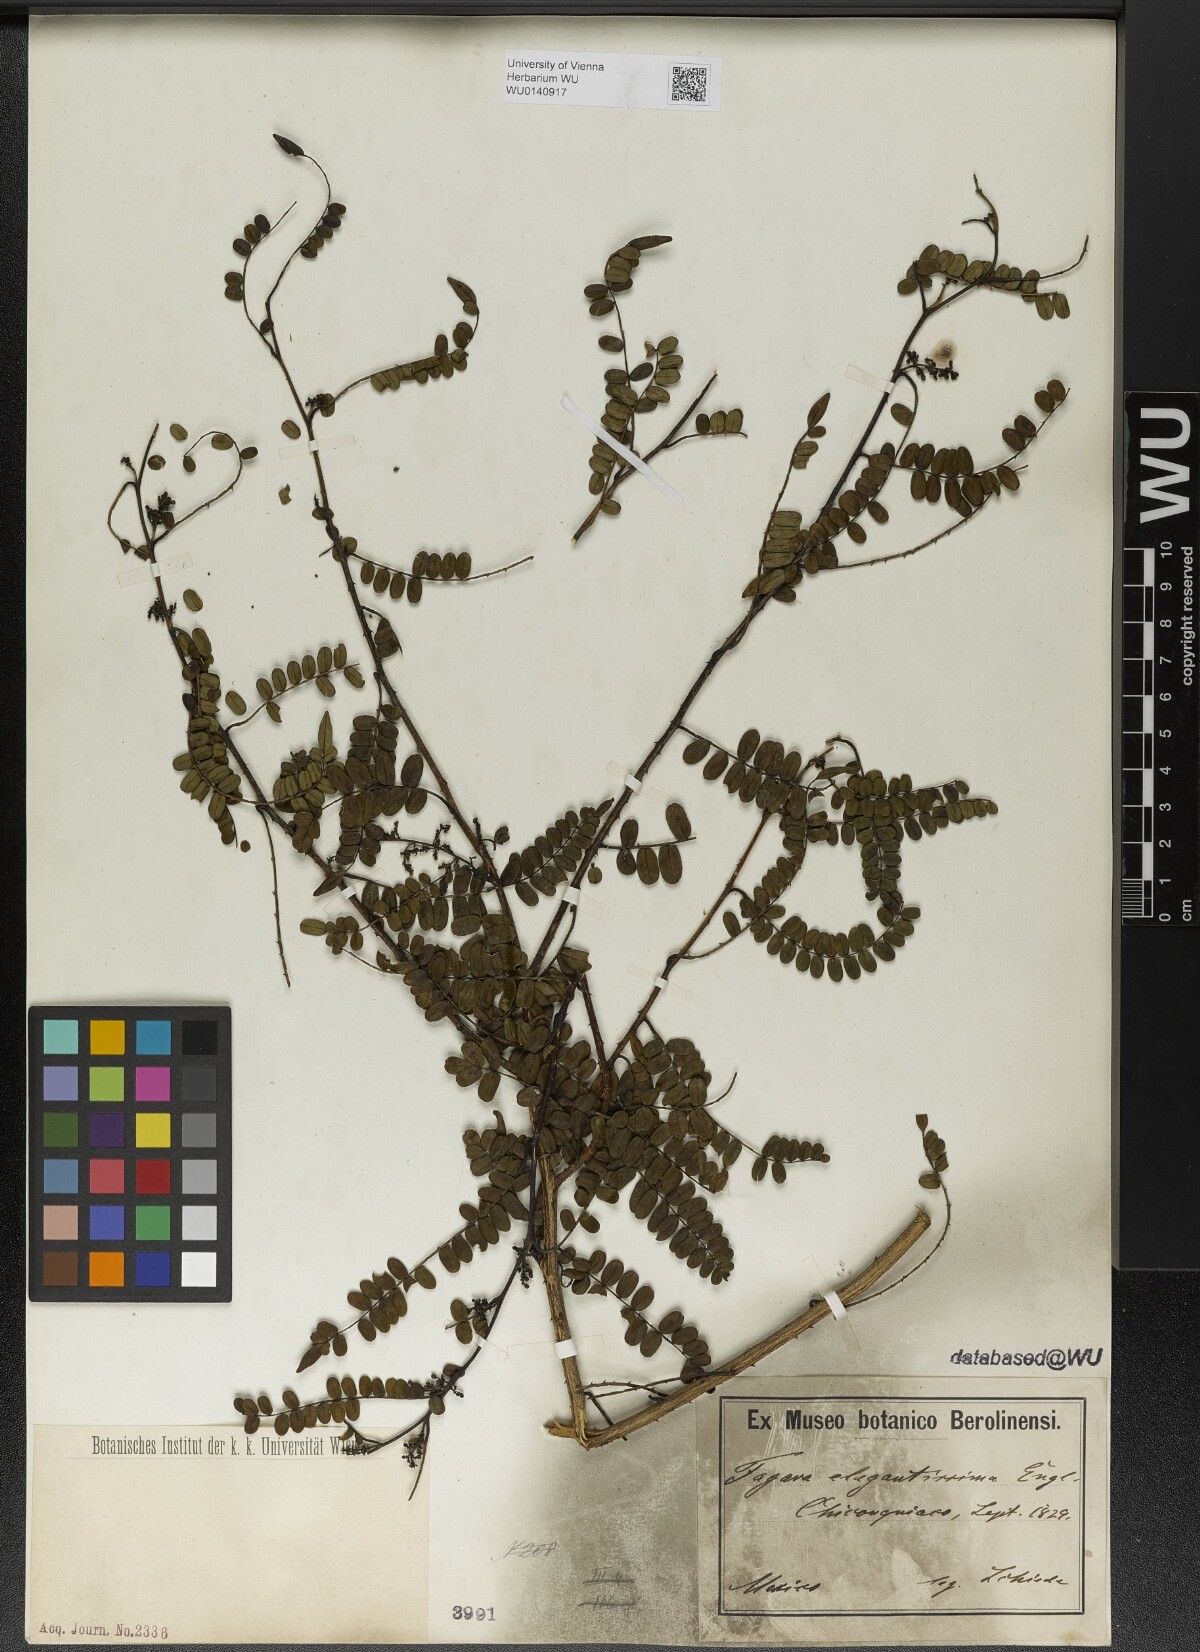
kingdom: Plantae
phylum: Tracheophyta
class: Magnoliopsida
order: Sapindales
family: Rutaceae
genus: Zanthoxylum
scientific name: Zanthoxylum foliolosum
